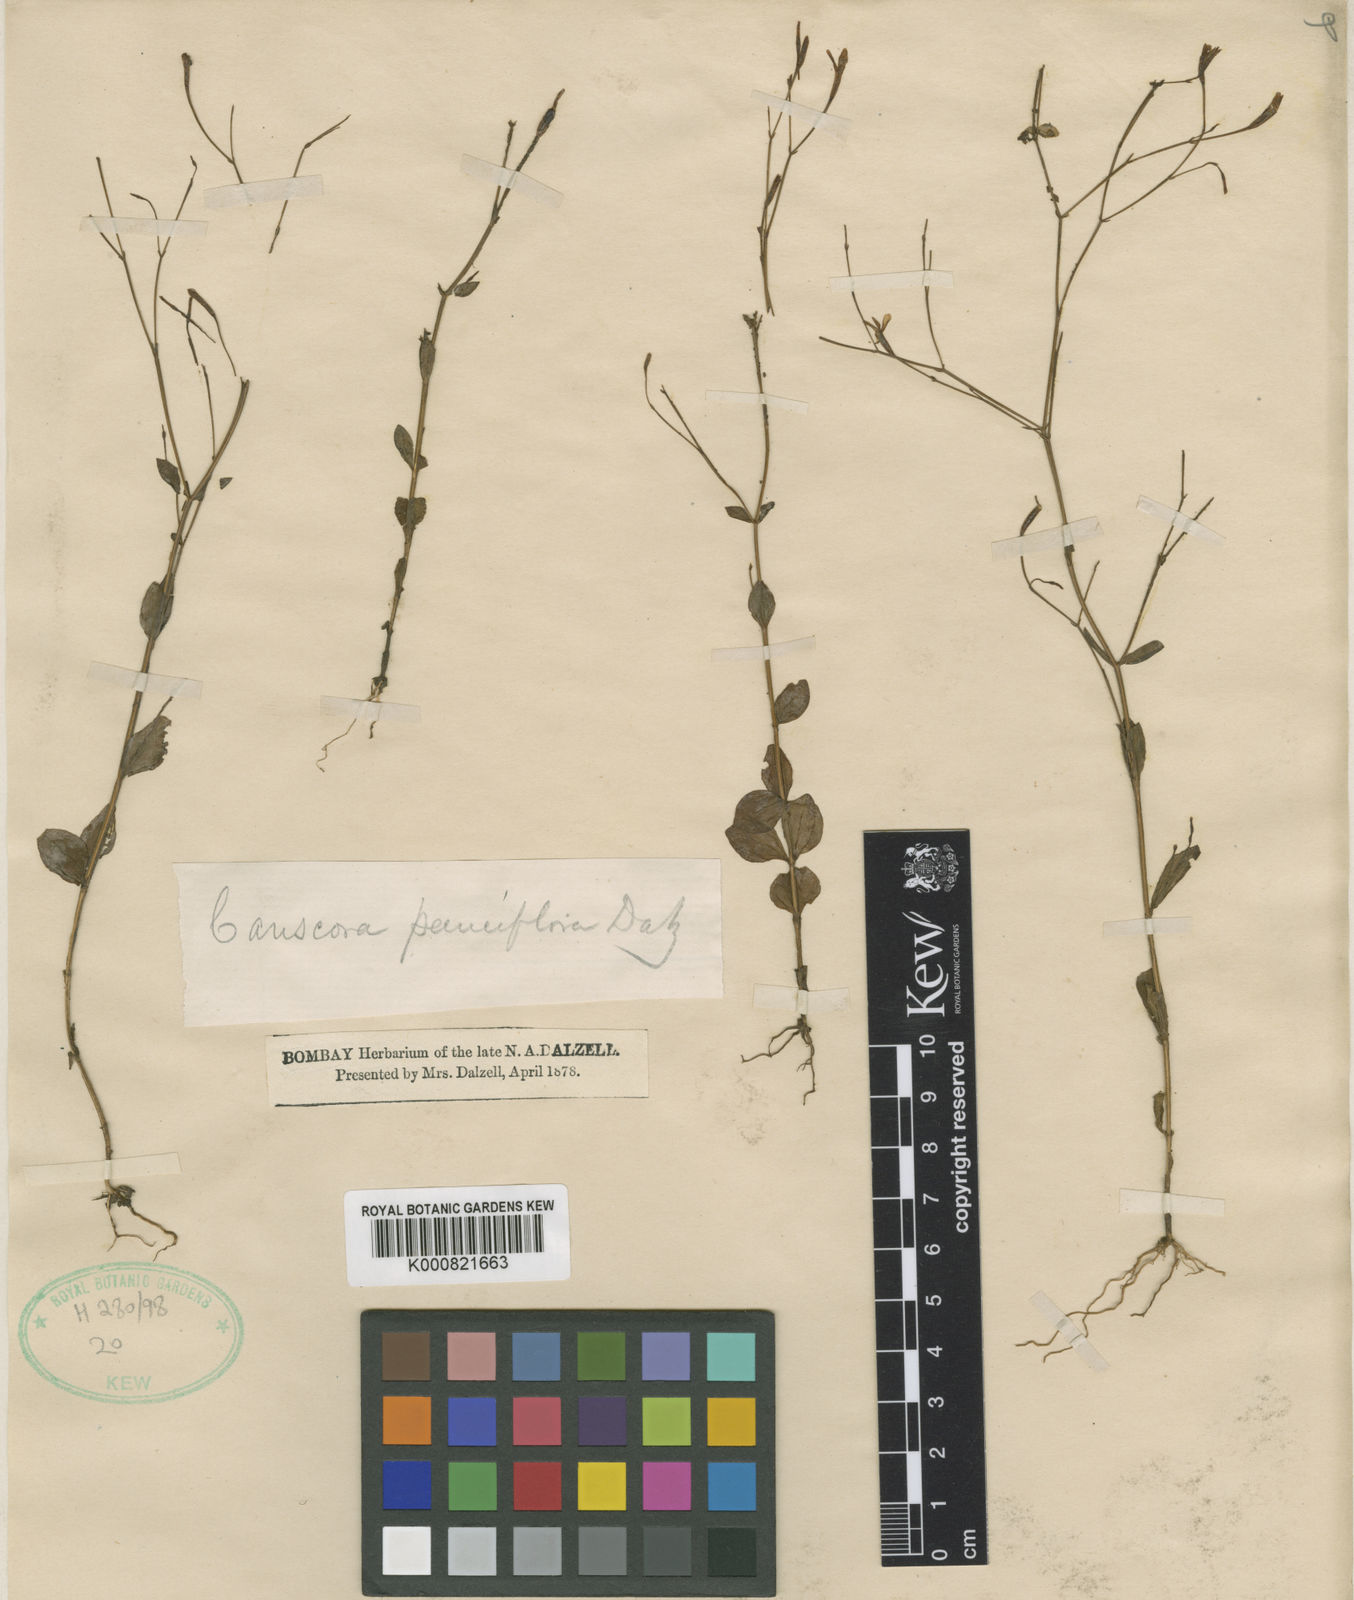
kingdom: Plantae
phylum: Tracheophyta
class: Magnoliopsida
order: Gentianales
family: Gentianaceae
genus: Canscora
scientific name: Canscora diffusa
